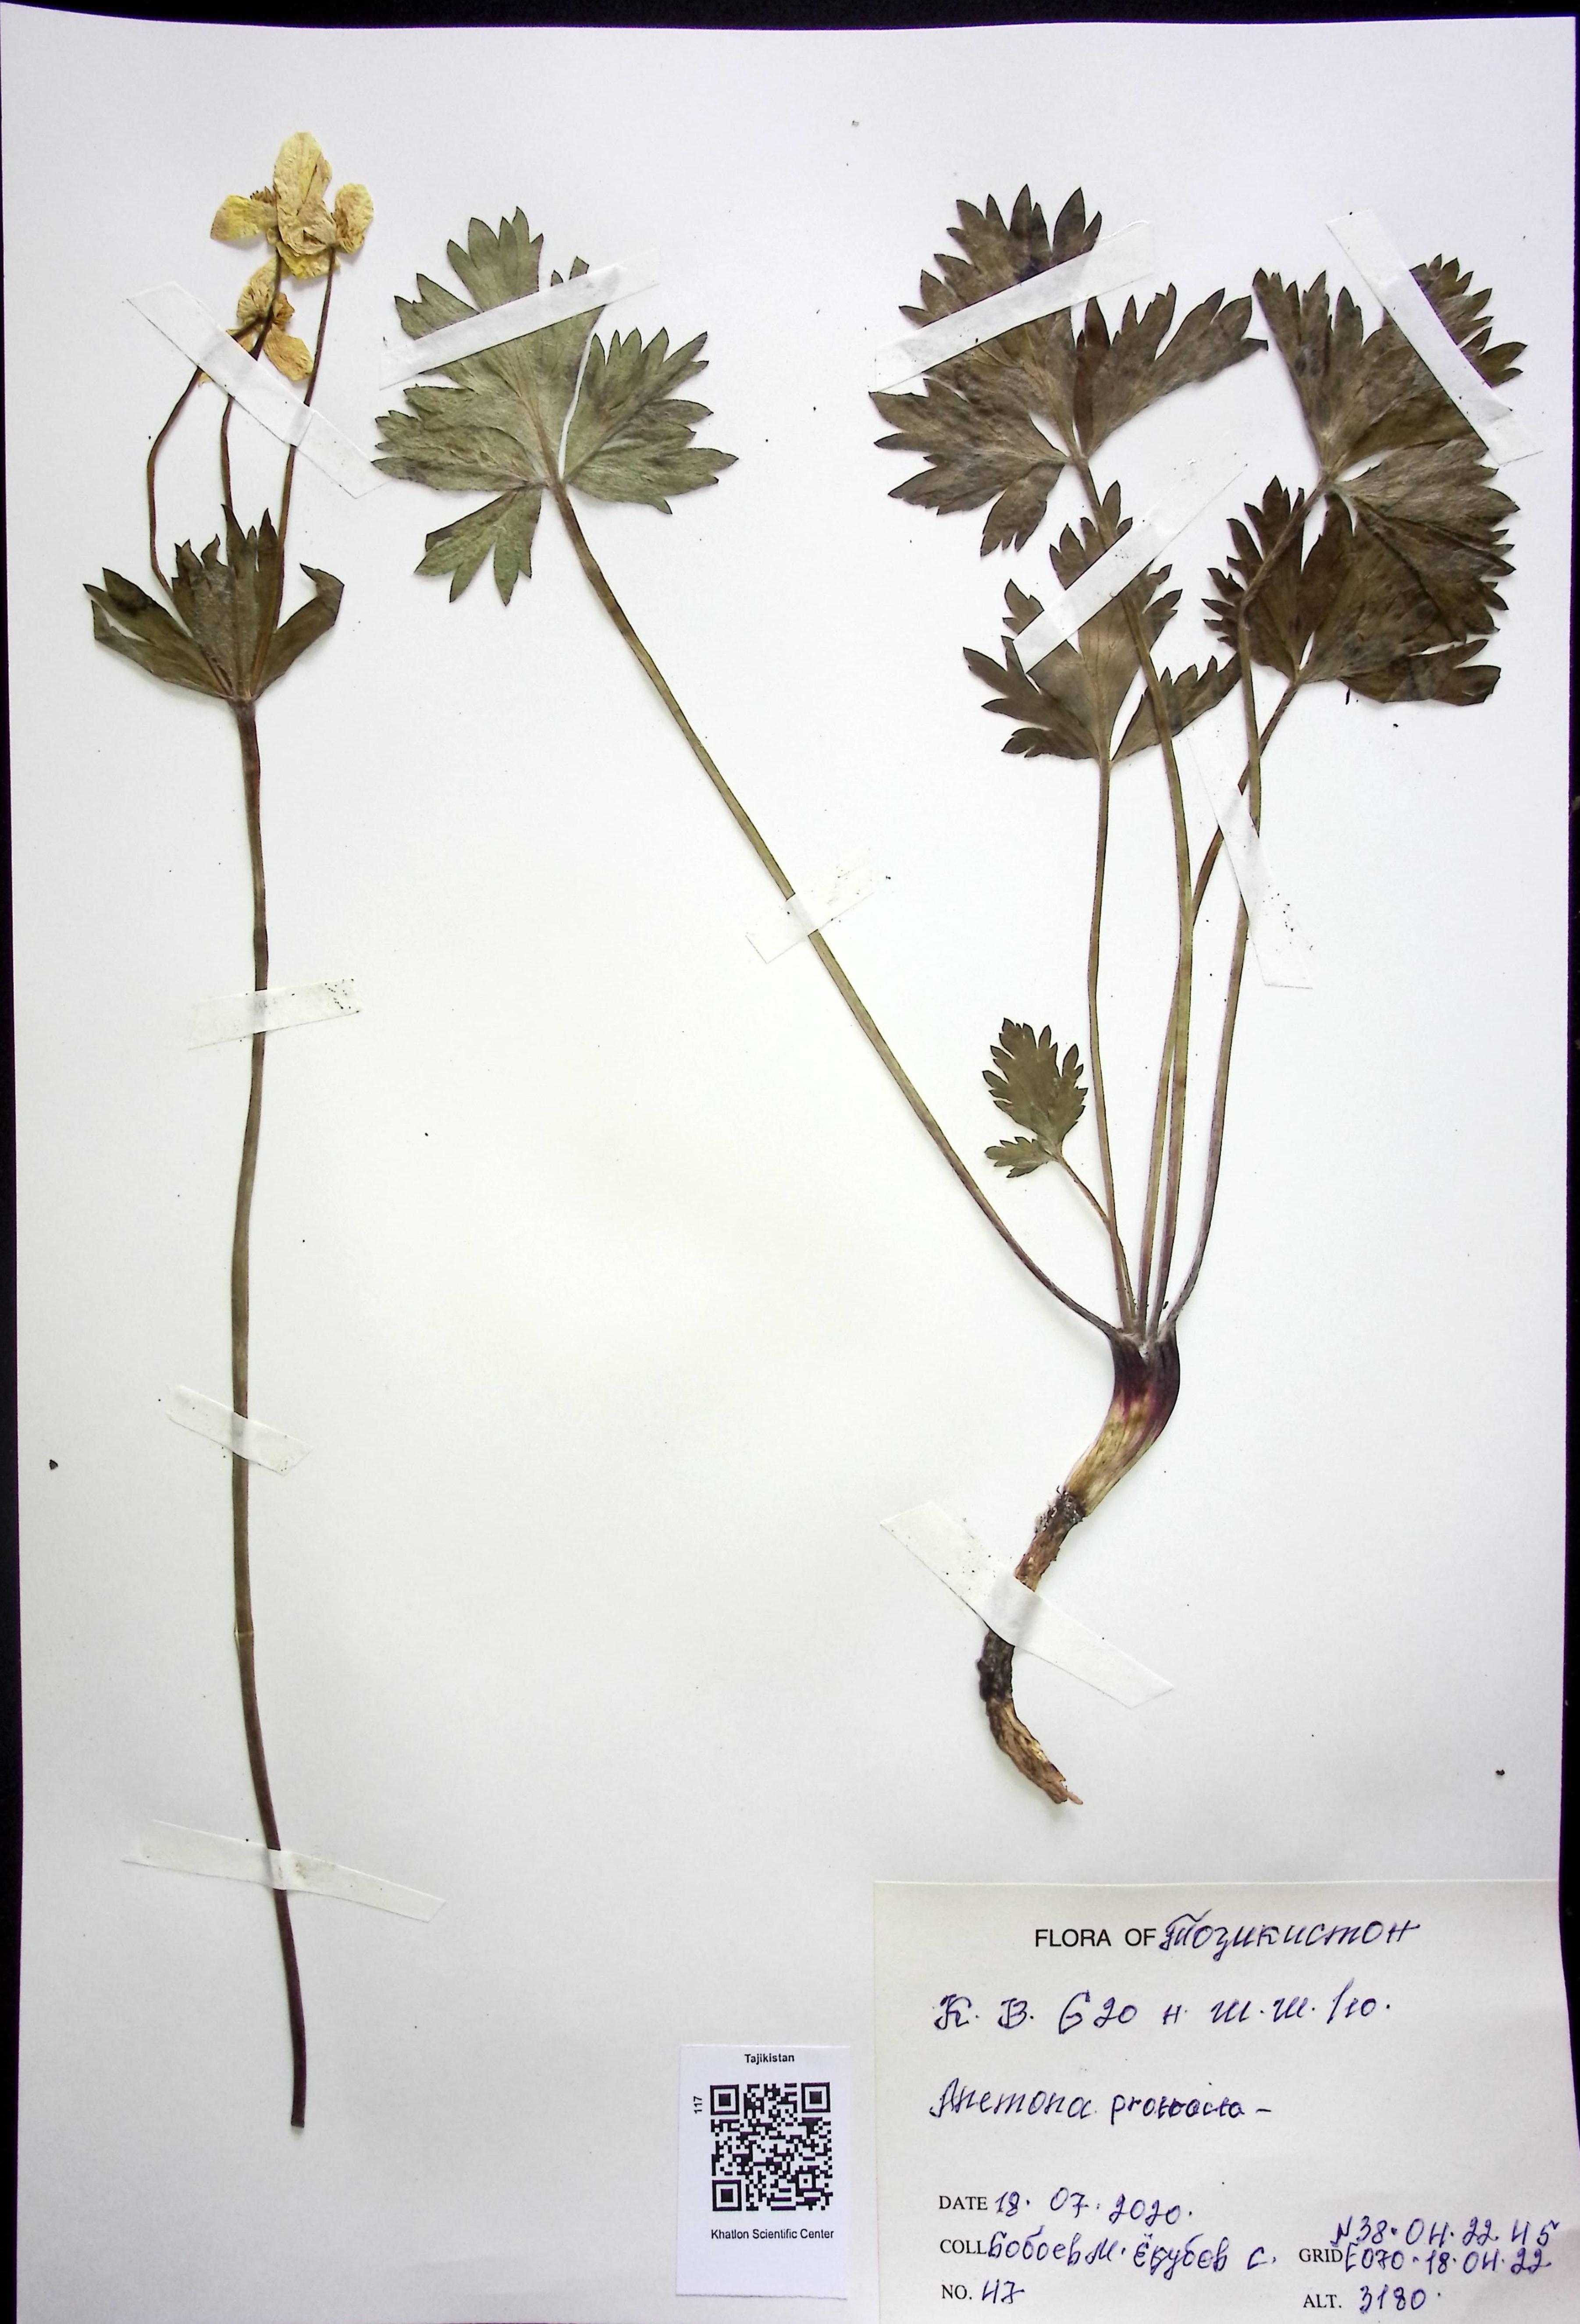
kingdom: Plantae
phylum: Tracheophyta
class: Magnoliopsida
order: Ranunculales
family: Ranunculaceae
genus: Anemonastrum
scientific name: Anemonastrum protractum
